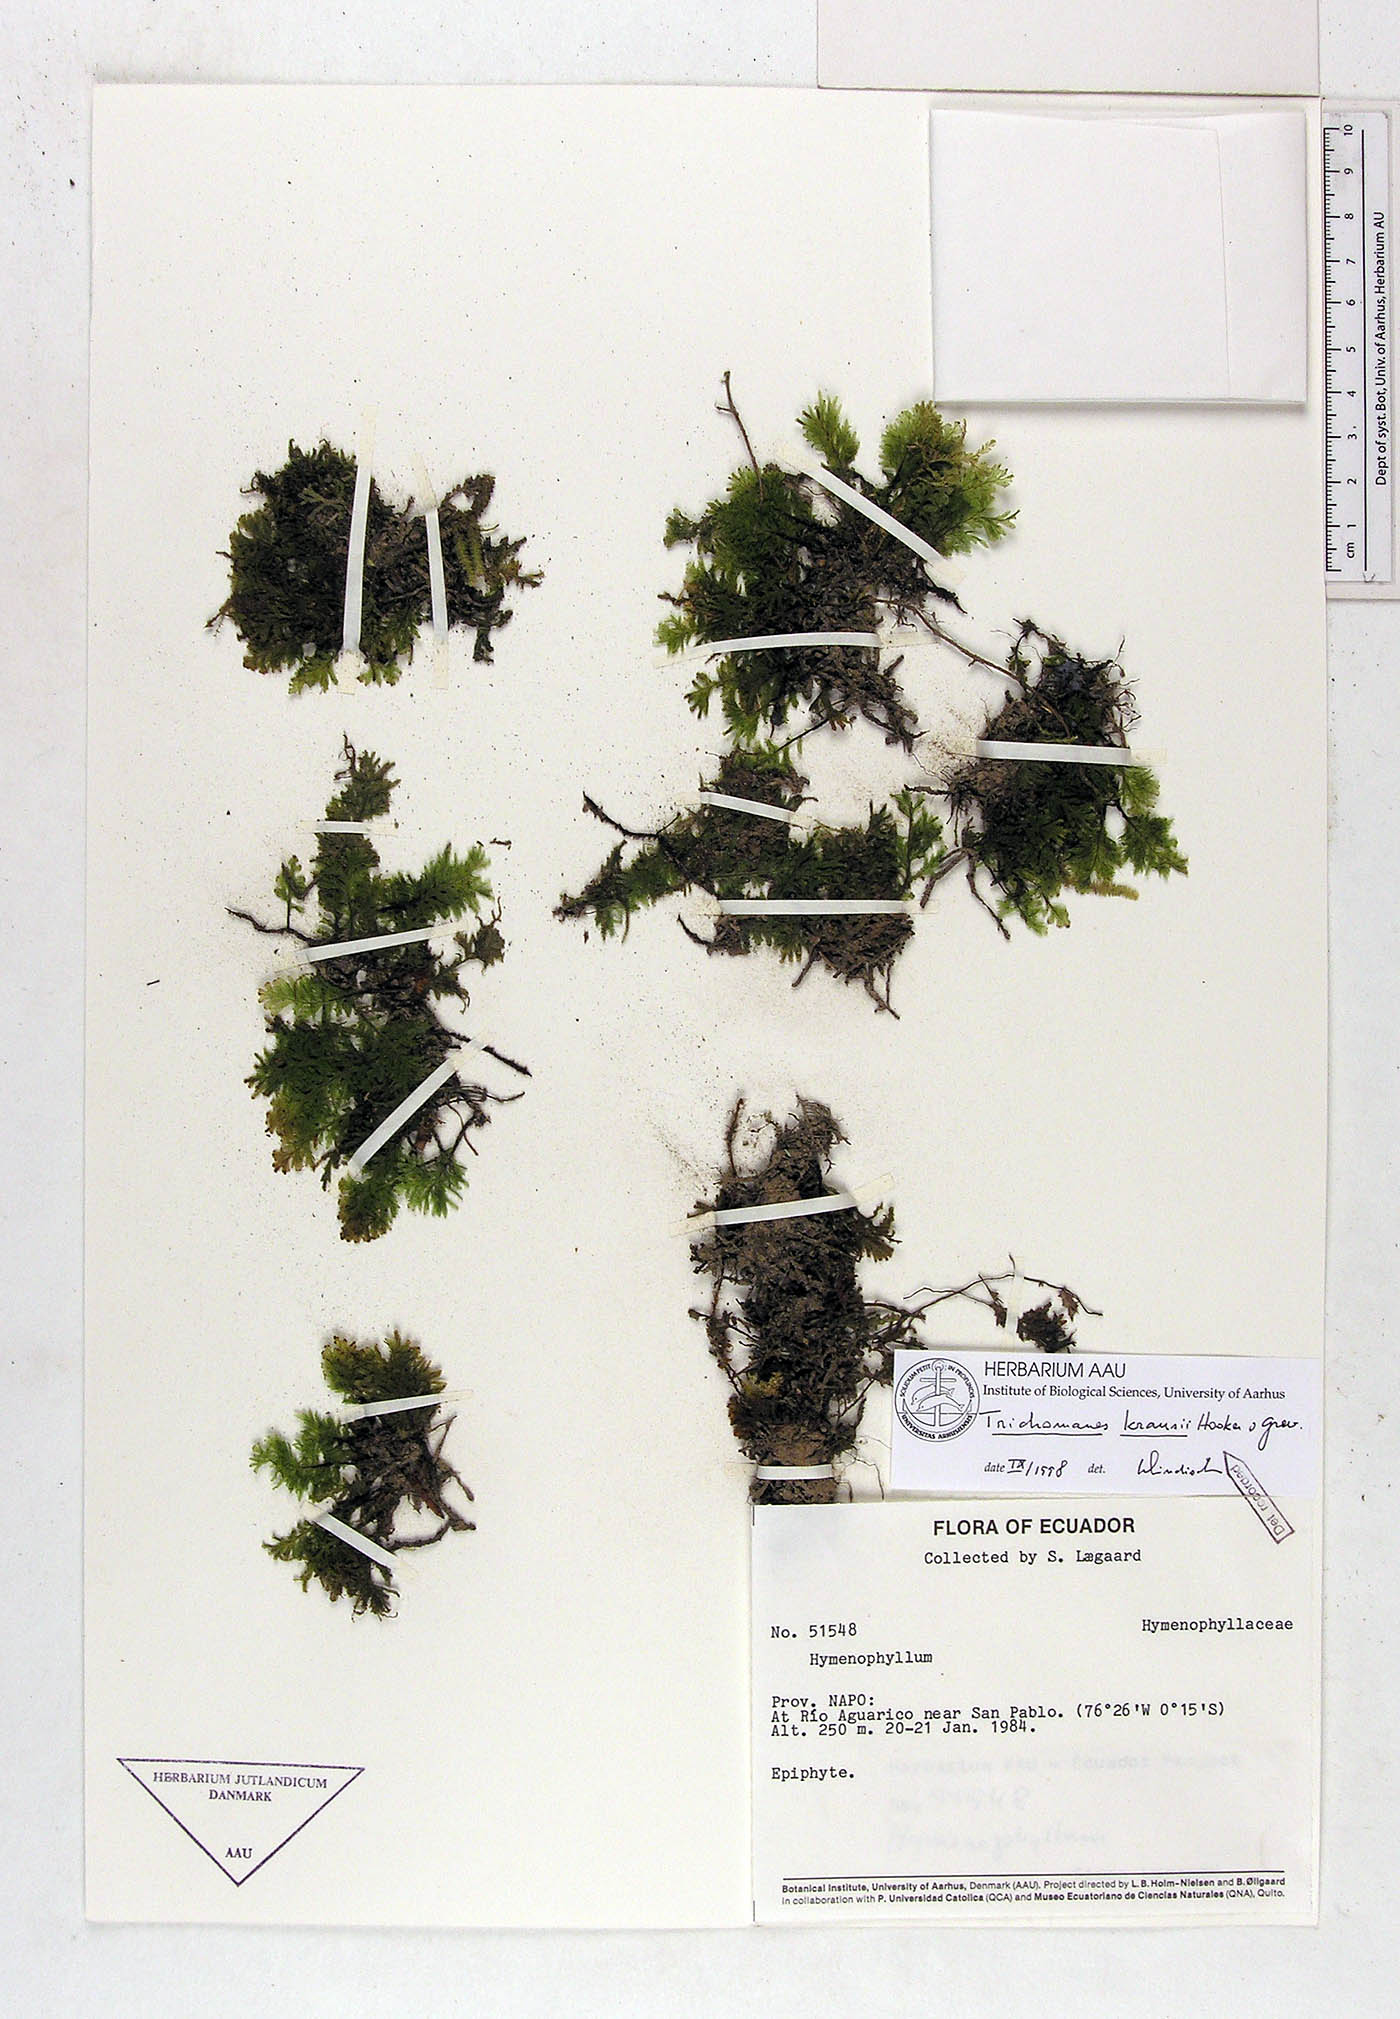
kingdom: Plantae
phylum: Tracheophyta
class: Polypodiopsida
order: Hymenophyllales
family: Hymenophyllaceae
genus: Didymoglossum
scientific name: Didymoglossum kraussii
